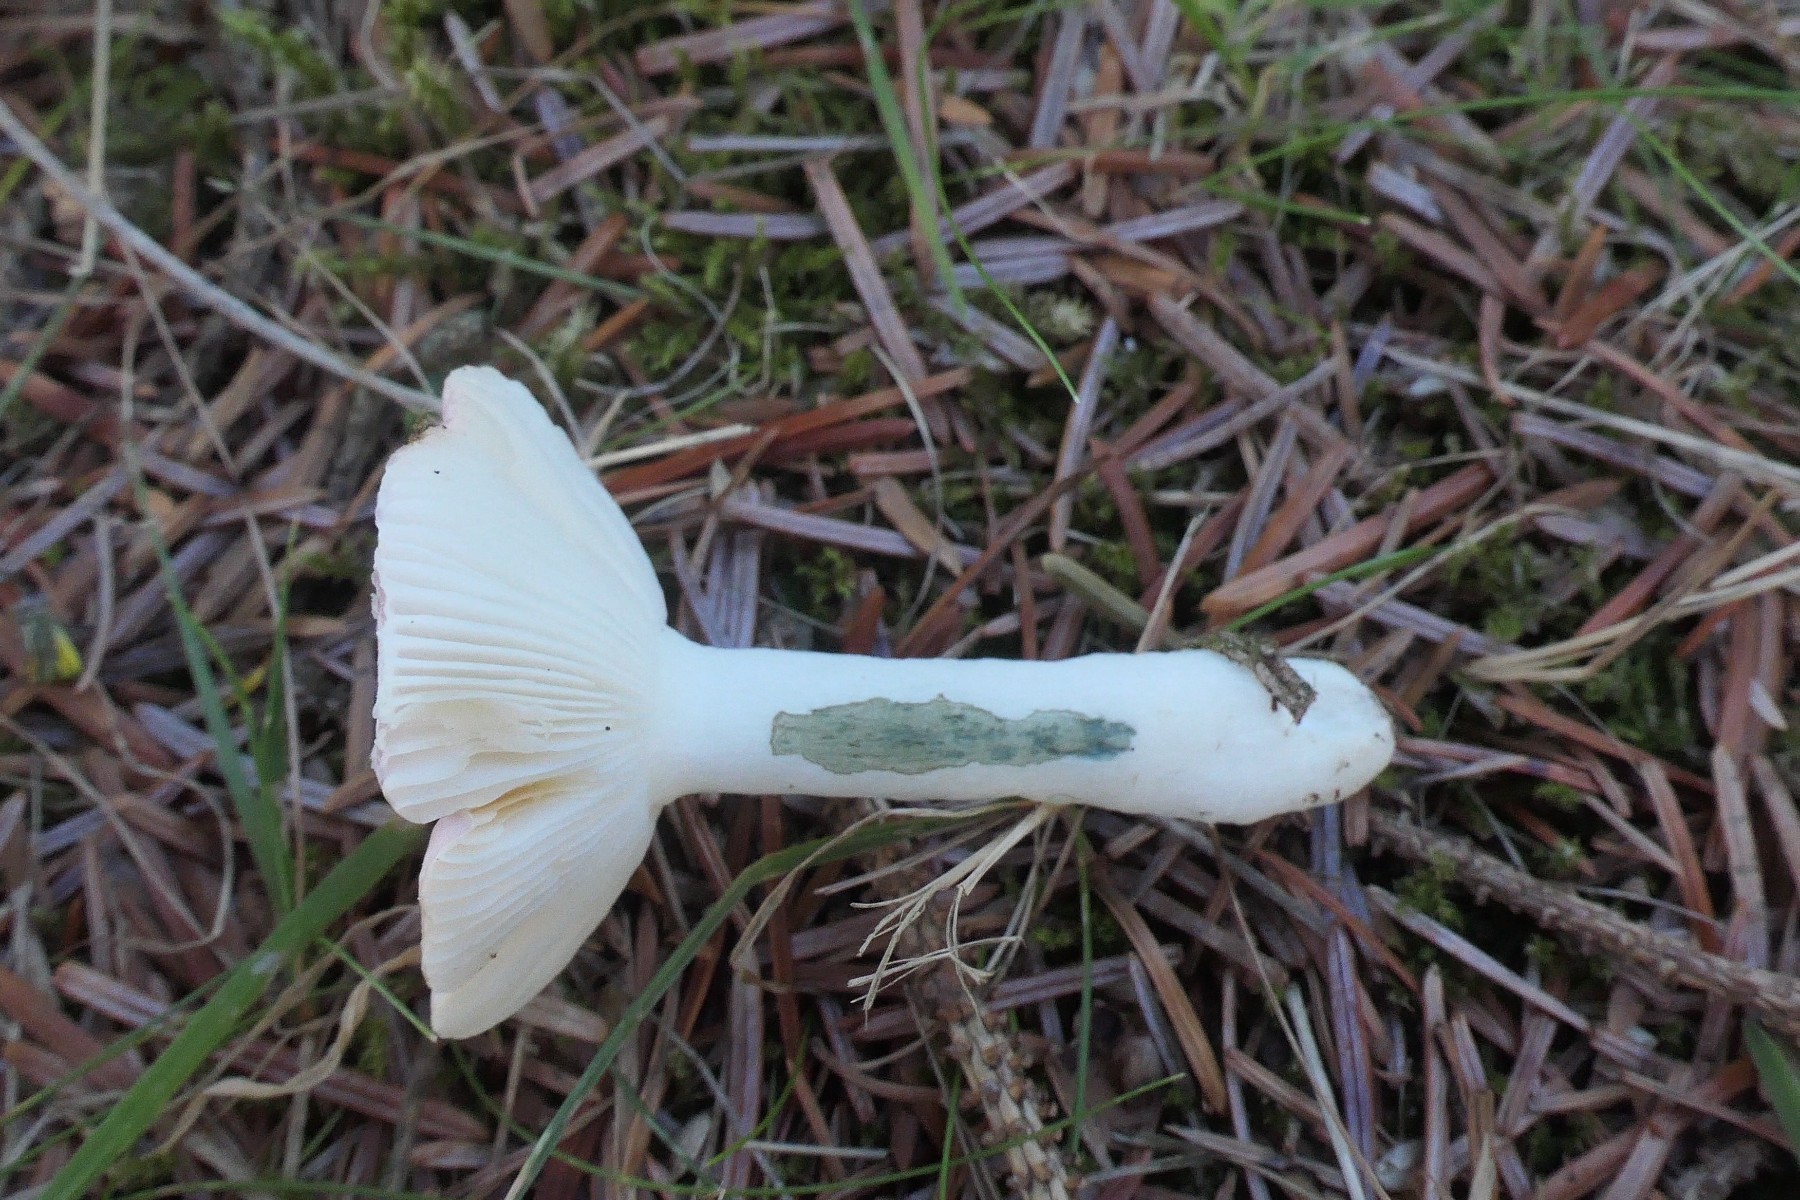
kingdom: Fungi
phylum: Basidiomycota
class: Agaricomycetes
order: Russulales
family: Russulaceae
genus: Russula
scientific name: Russula fragilis
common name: savbladet skørhat
